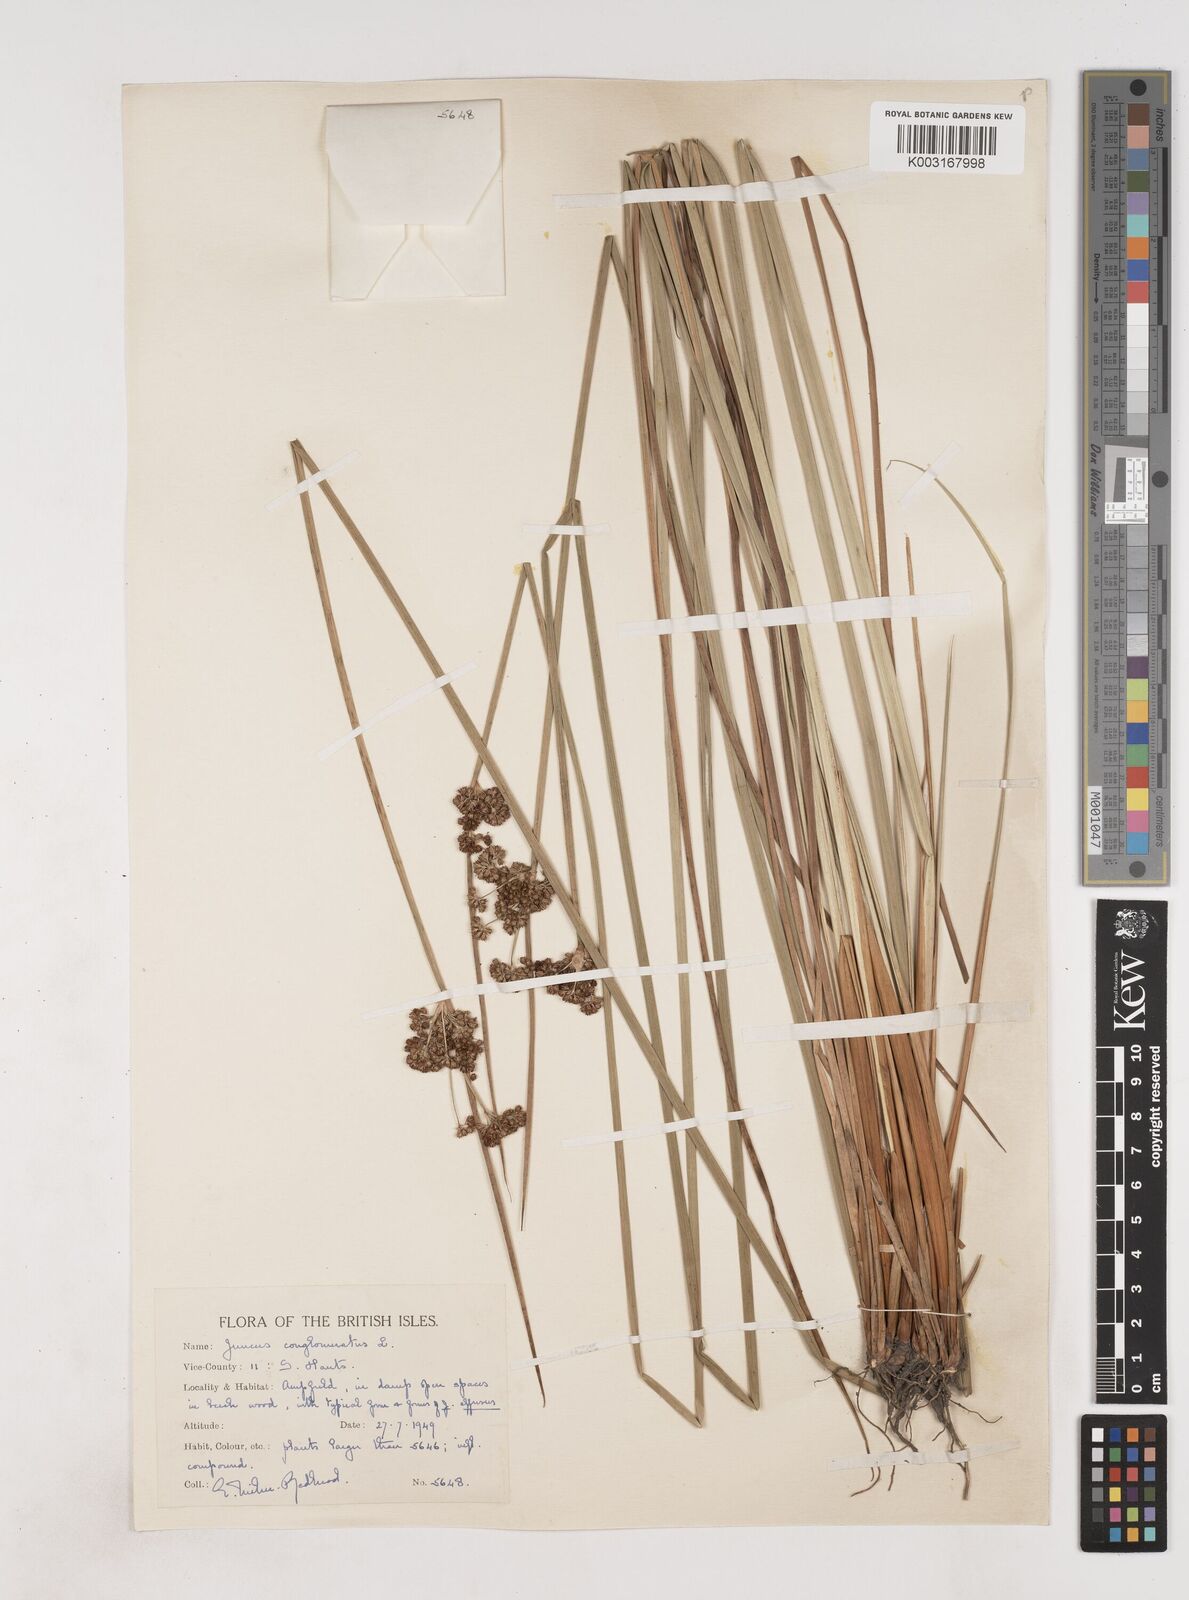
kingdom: Plantae
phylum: Tracheophyta
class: Liliopsida
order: Poales
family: Juncaceae
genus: Juncus
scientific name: Juncus conglomeratus
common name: Compact rush
